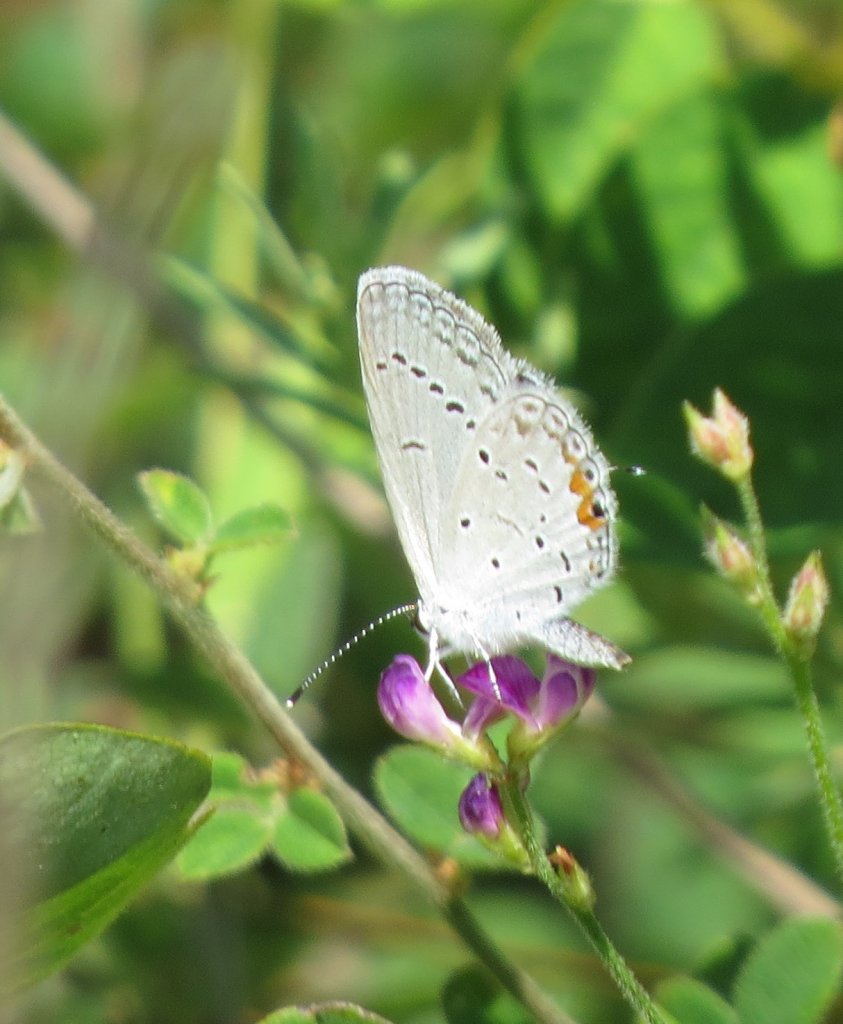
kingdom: Animalia
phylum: Arthropoda
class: Insecta
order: Lepidoptera
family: Lycaenidae
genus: Elkalyce
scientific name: Elkalyce comyntas
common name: Eastern Tailed-Blue
